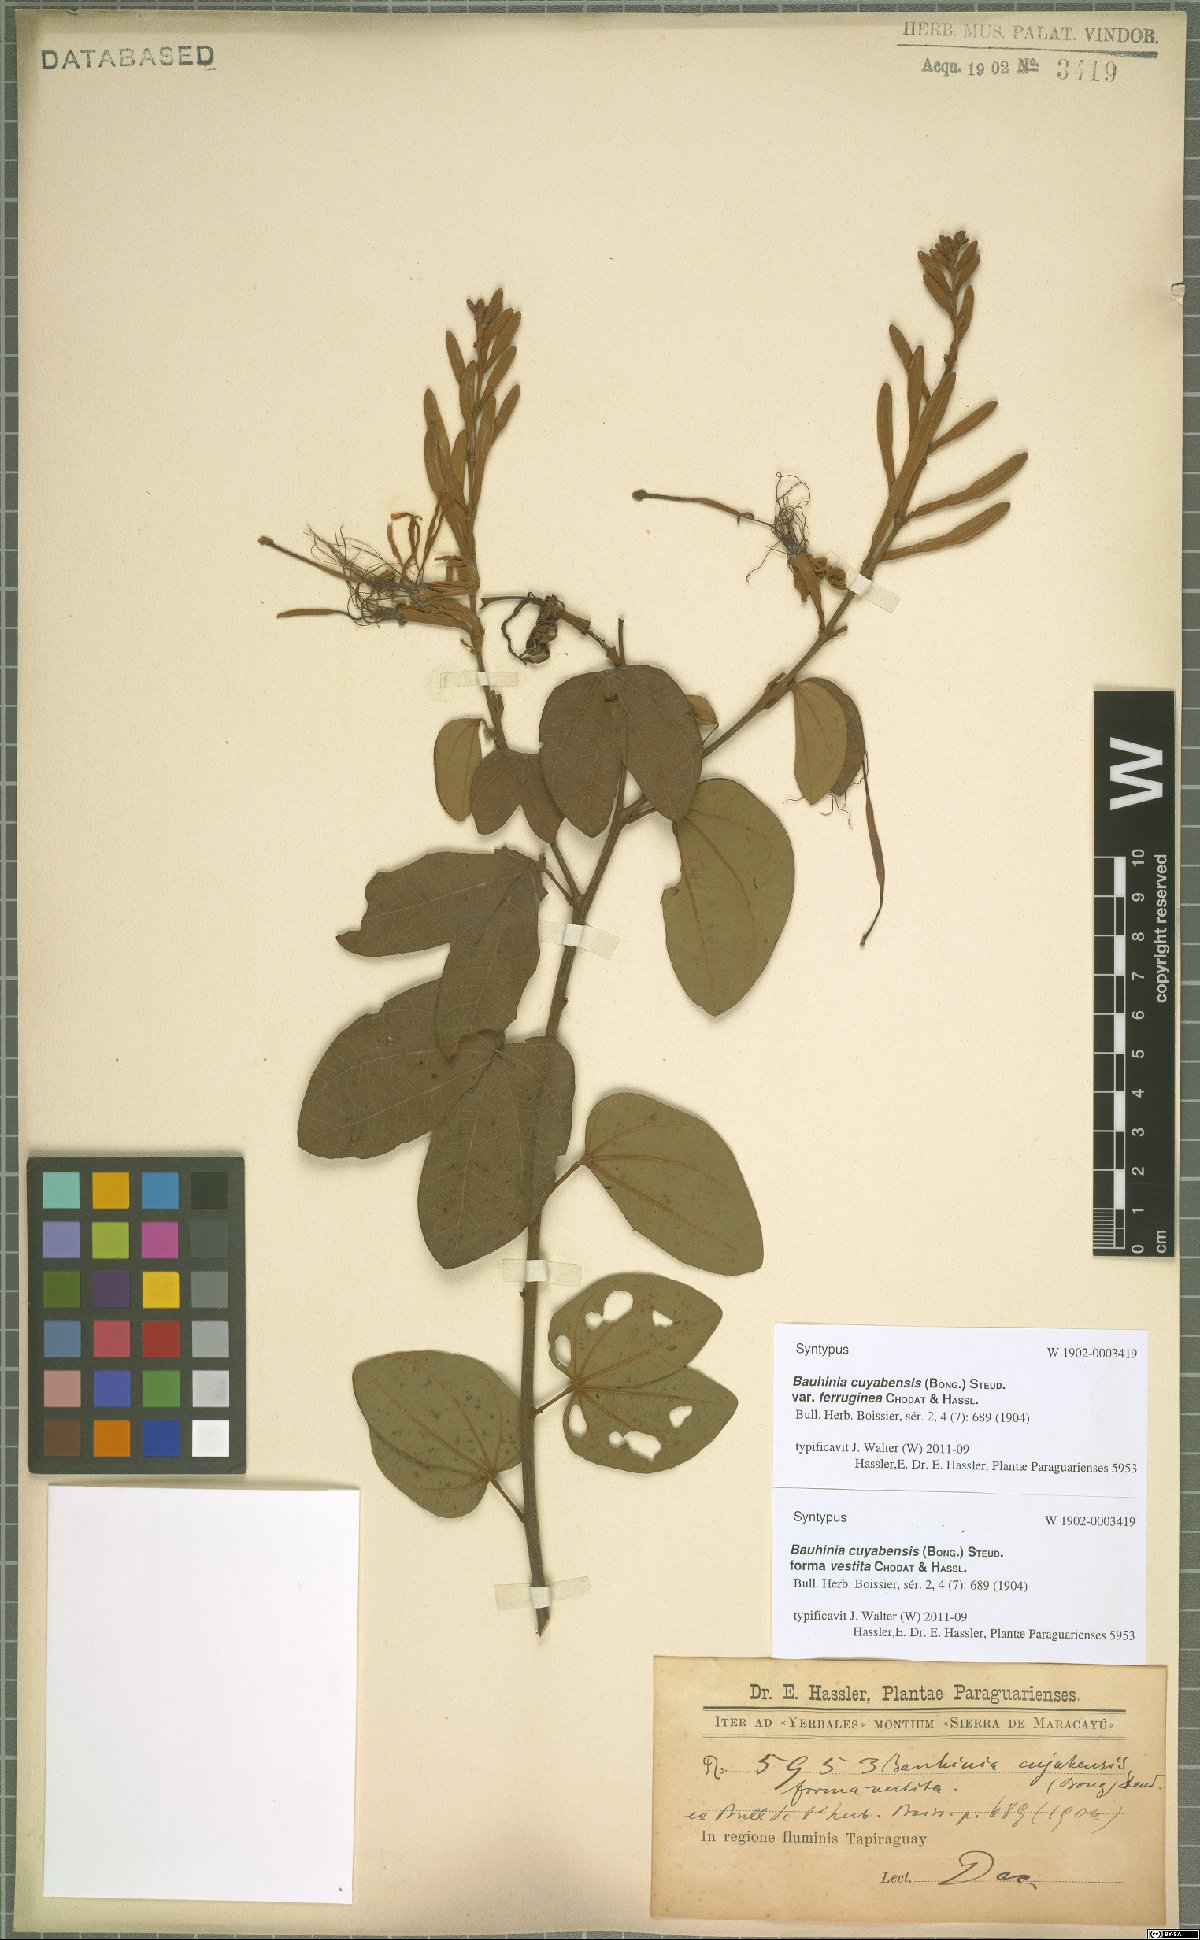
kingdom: Plantae
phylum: Tracheophyta
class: Magnoliopsida
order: Fabales
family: Fabaceae
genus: Bauhinia
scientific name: Bauhinia ungulata
